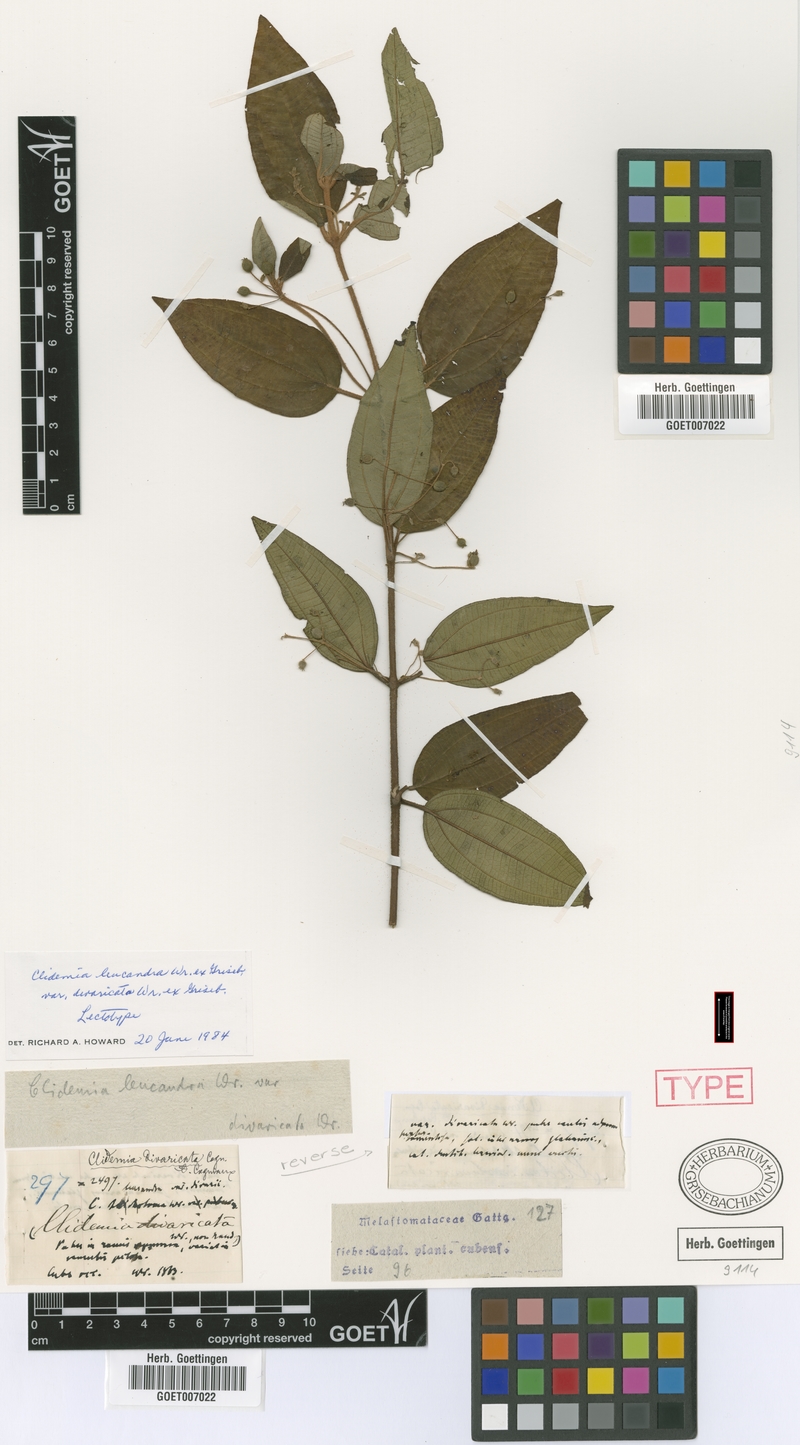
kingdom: Plantae
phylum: Tracheophyta
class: Magnoliopsida
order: Myrtales
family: Melastomataceae
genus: Miconia
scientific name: Miconia divaricatiflora
